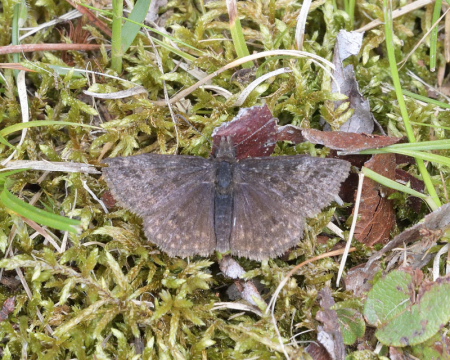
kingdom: Animalia
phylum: Arthropoda
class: Insecta
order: Lepidoptera
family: Hesperiidae
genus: Erynnis
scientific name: Erynnis icelus
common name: Dreamy Duskywing
